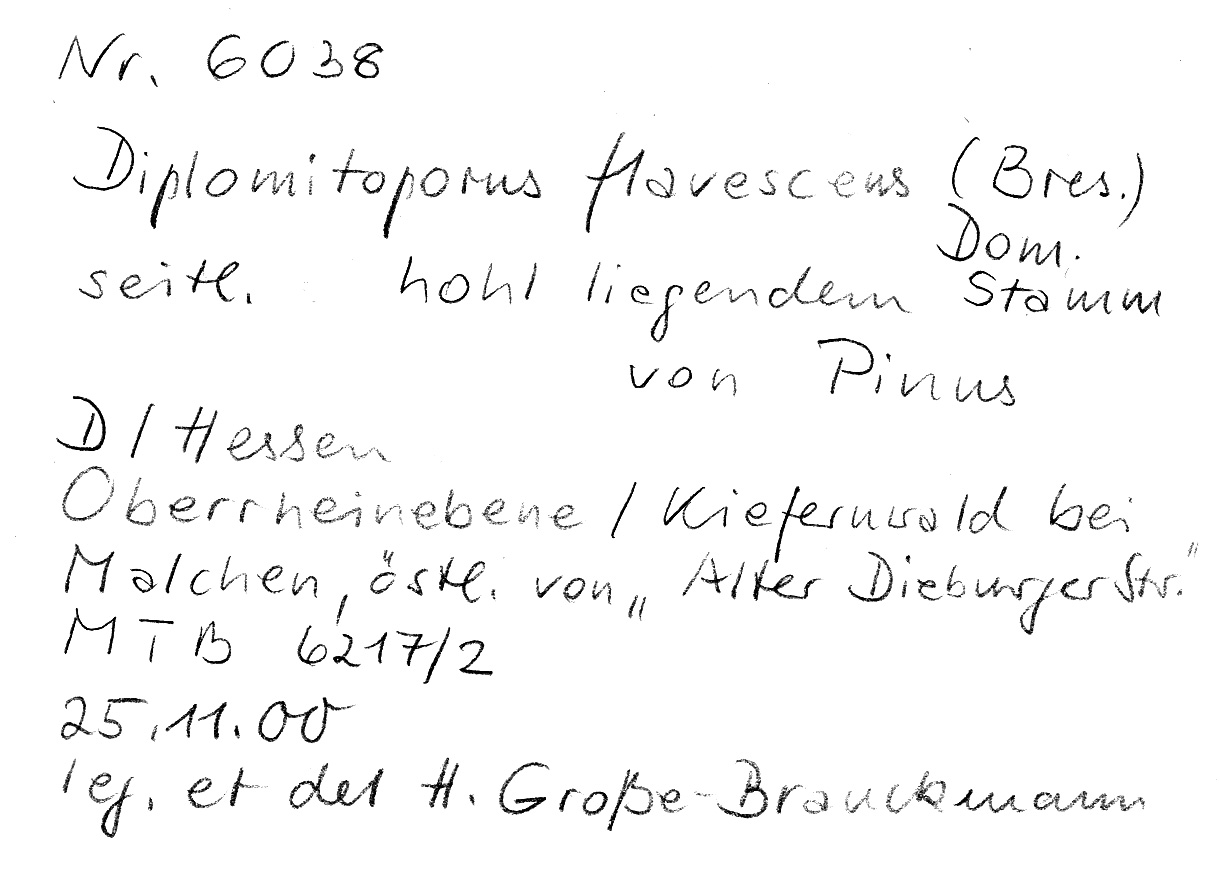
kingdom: Plantae
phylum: Tracheophyta
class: Pinopsida
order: Pinales
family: Pinaceae
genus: Pinus
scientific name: Pinus
